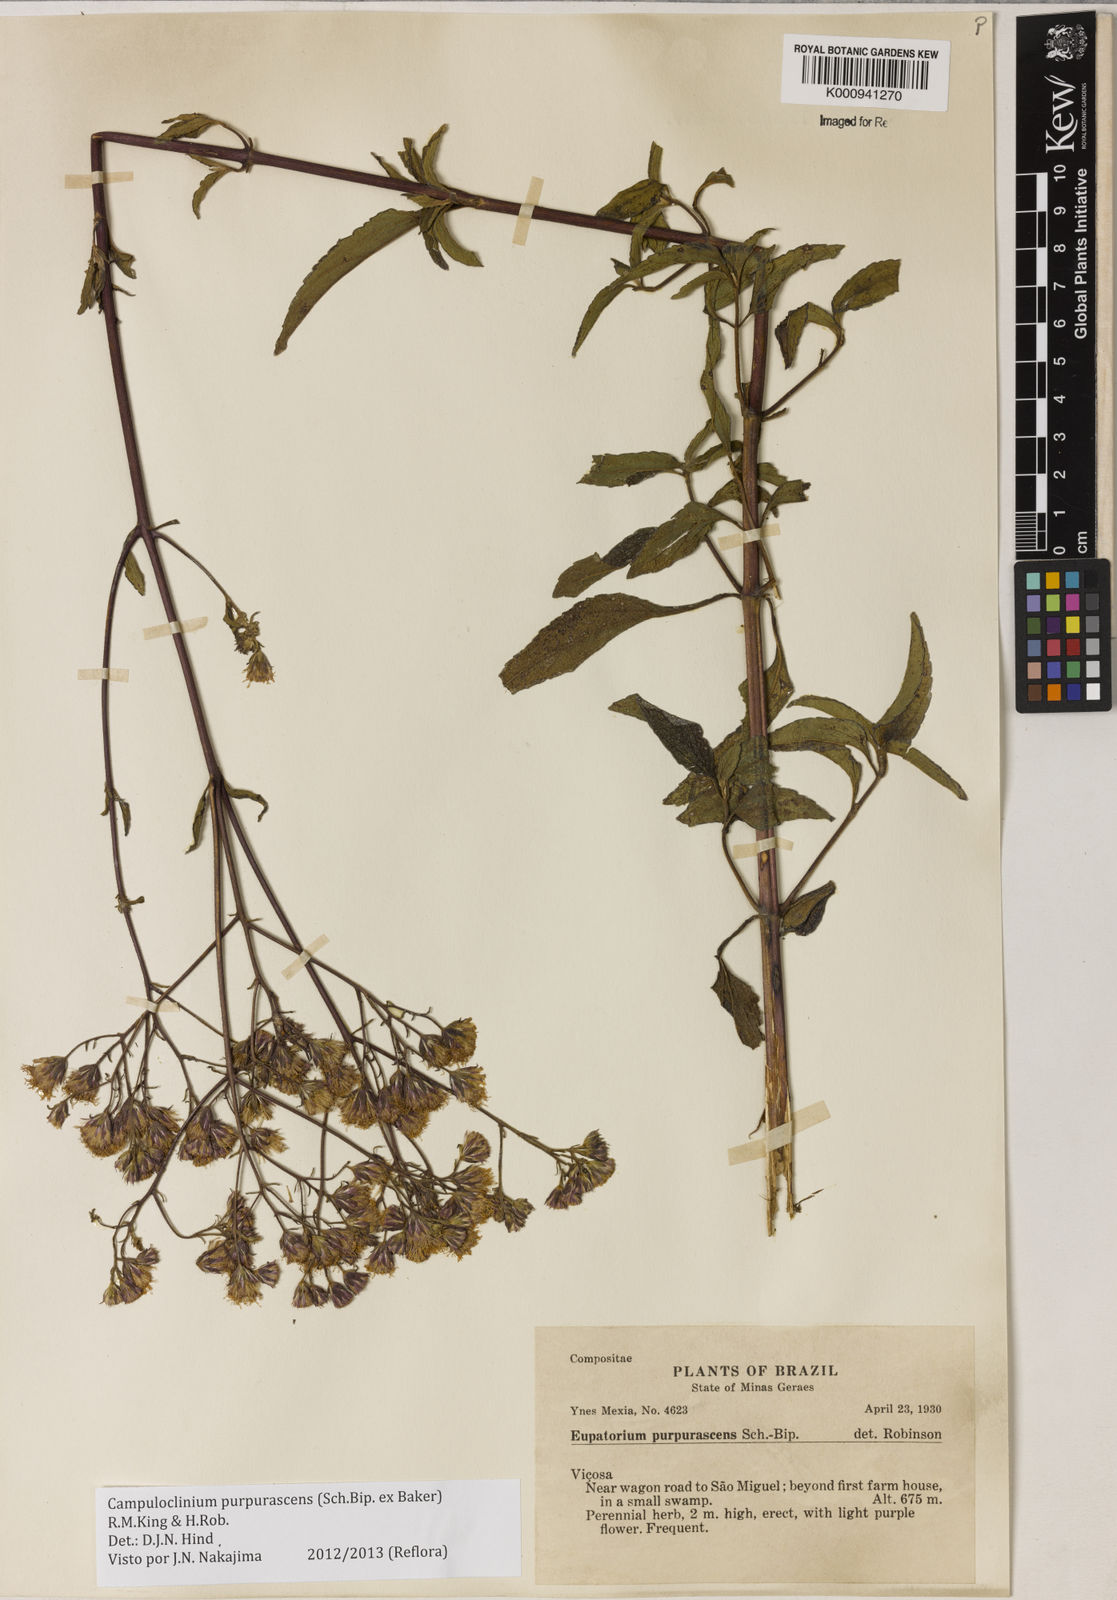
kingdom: Plantae
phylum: Tracheophyta
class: Magnoliopsida
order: Asterales
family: Asteraceae
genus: Campuloclinium
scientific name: Campuloclinium purpurascens
